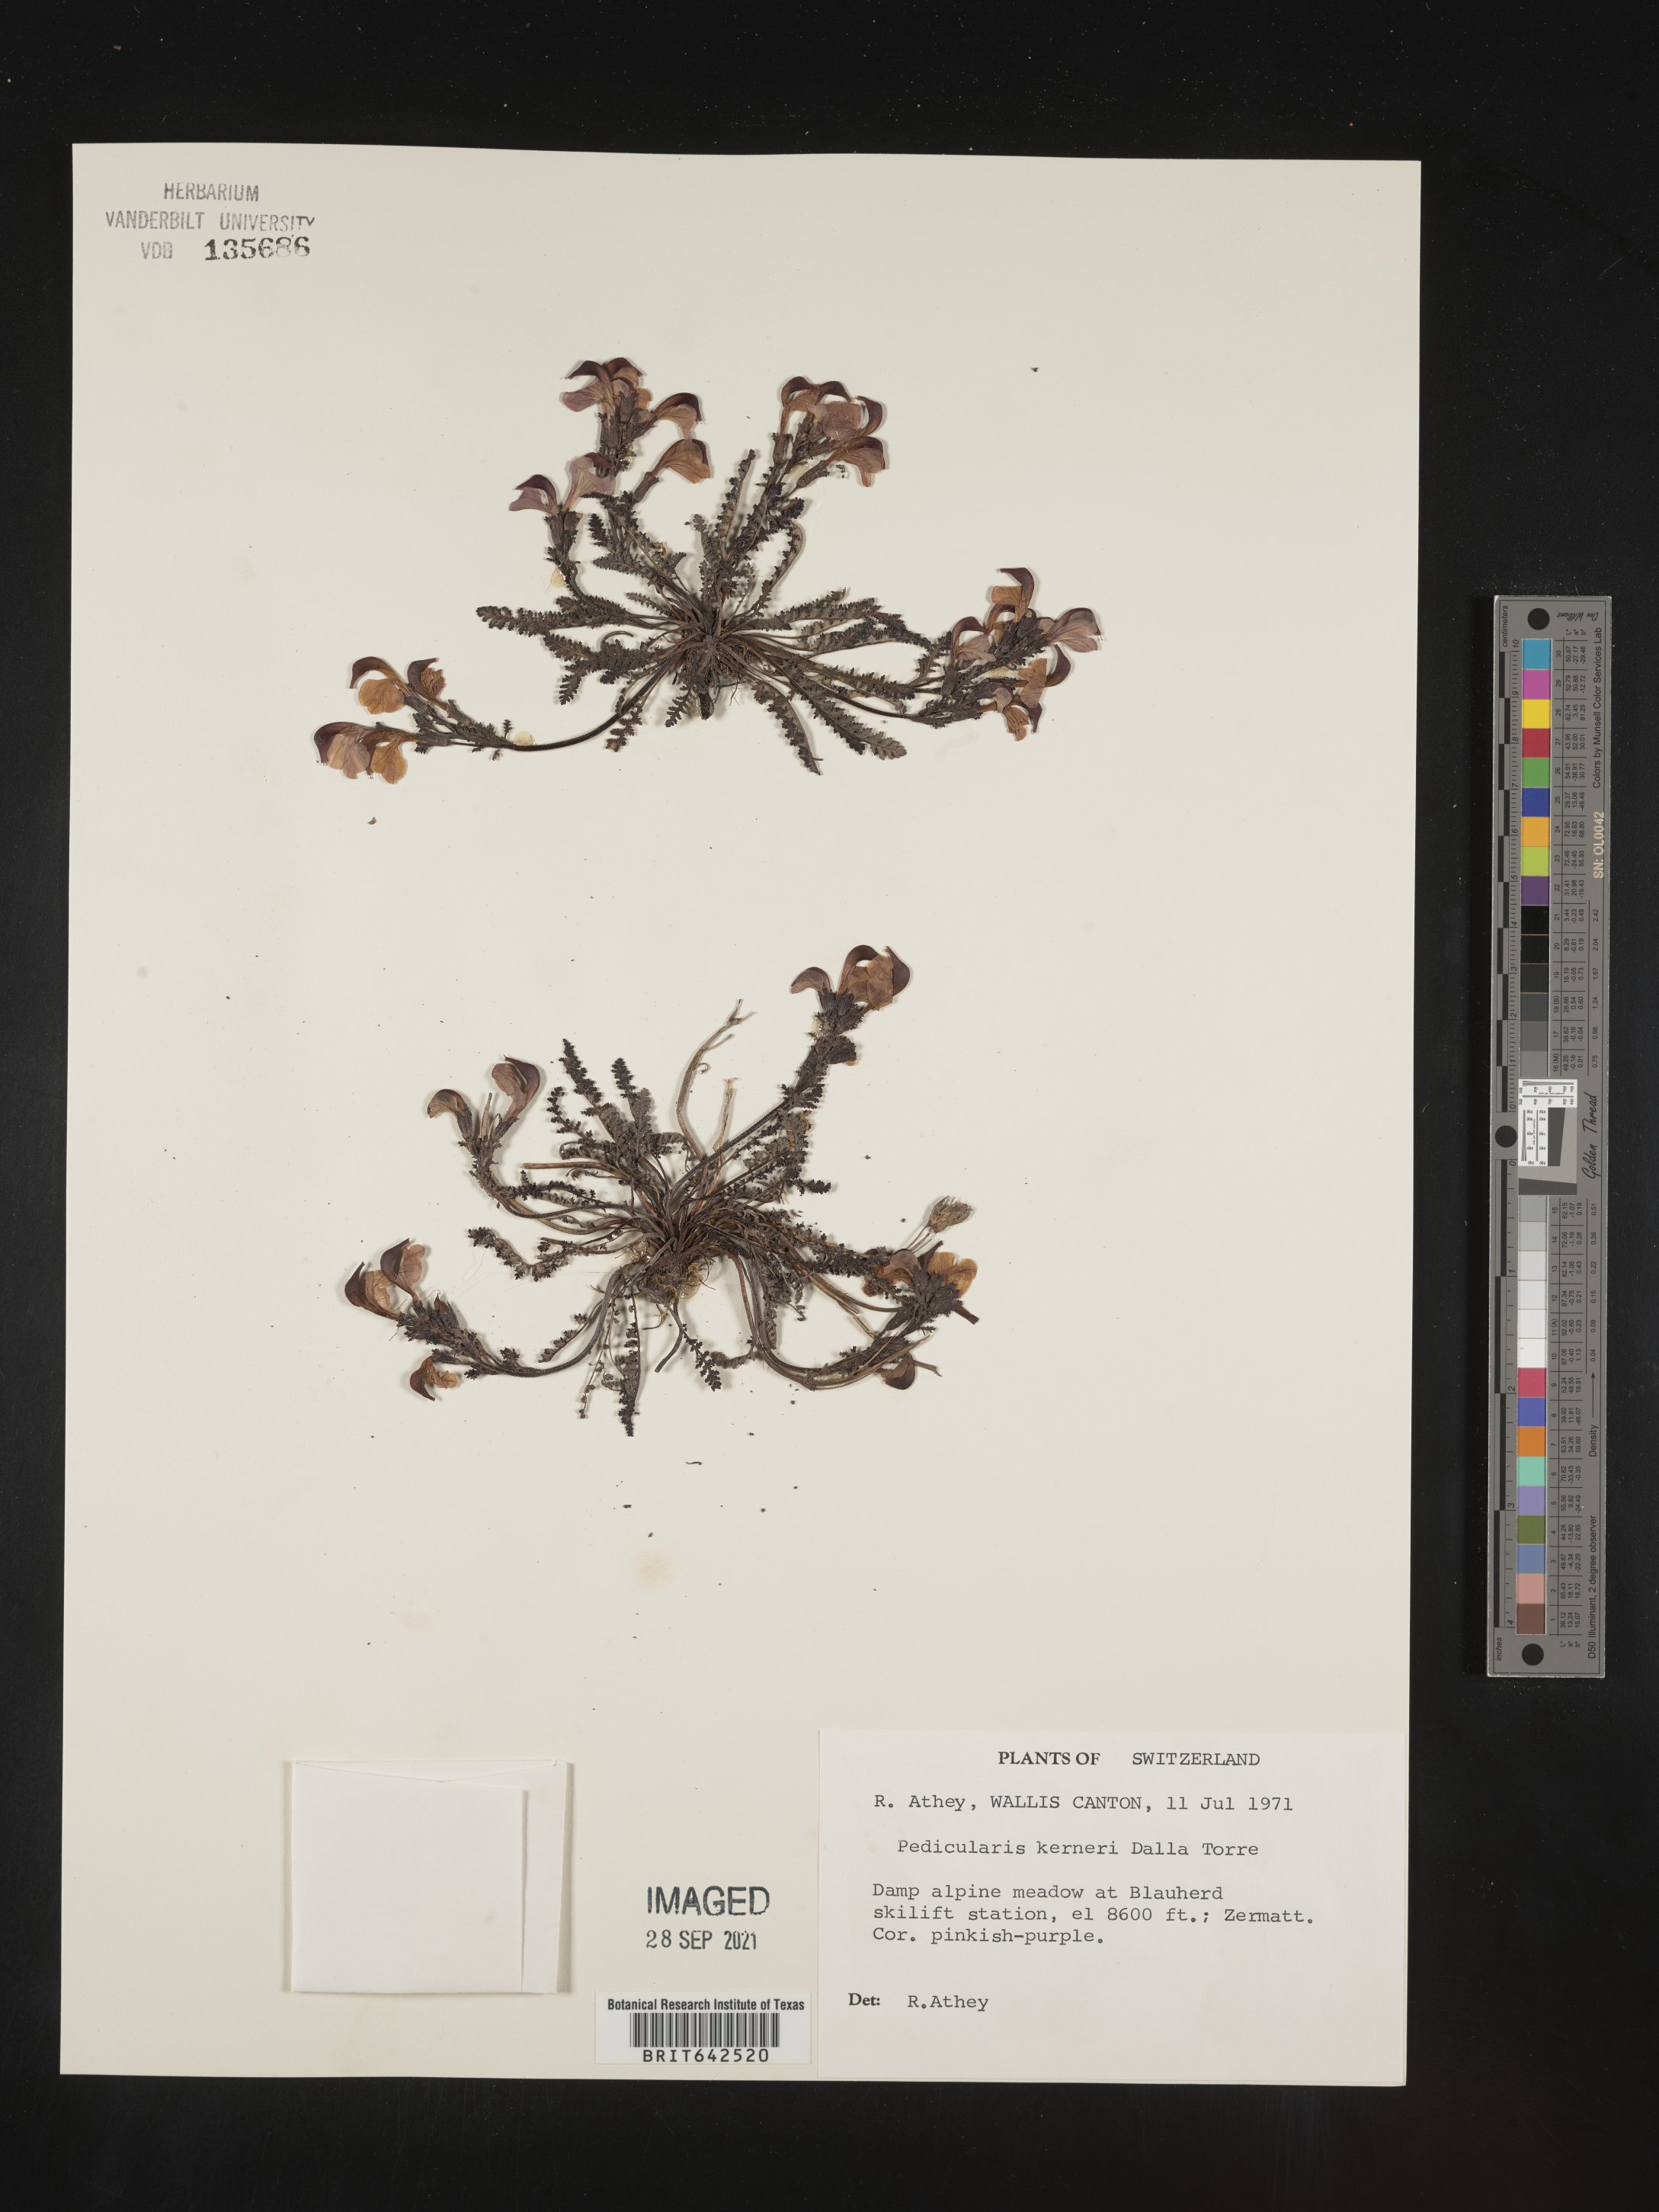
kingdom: Plantae
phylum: Tracheophyta
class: Magnoliopsida
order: Lamiales
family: Orobanchaceae
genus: Pedicularis
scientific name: Pedicularis
